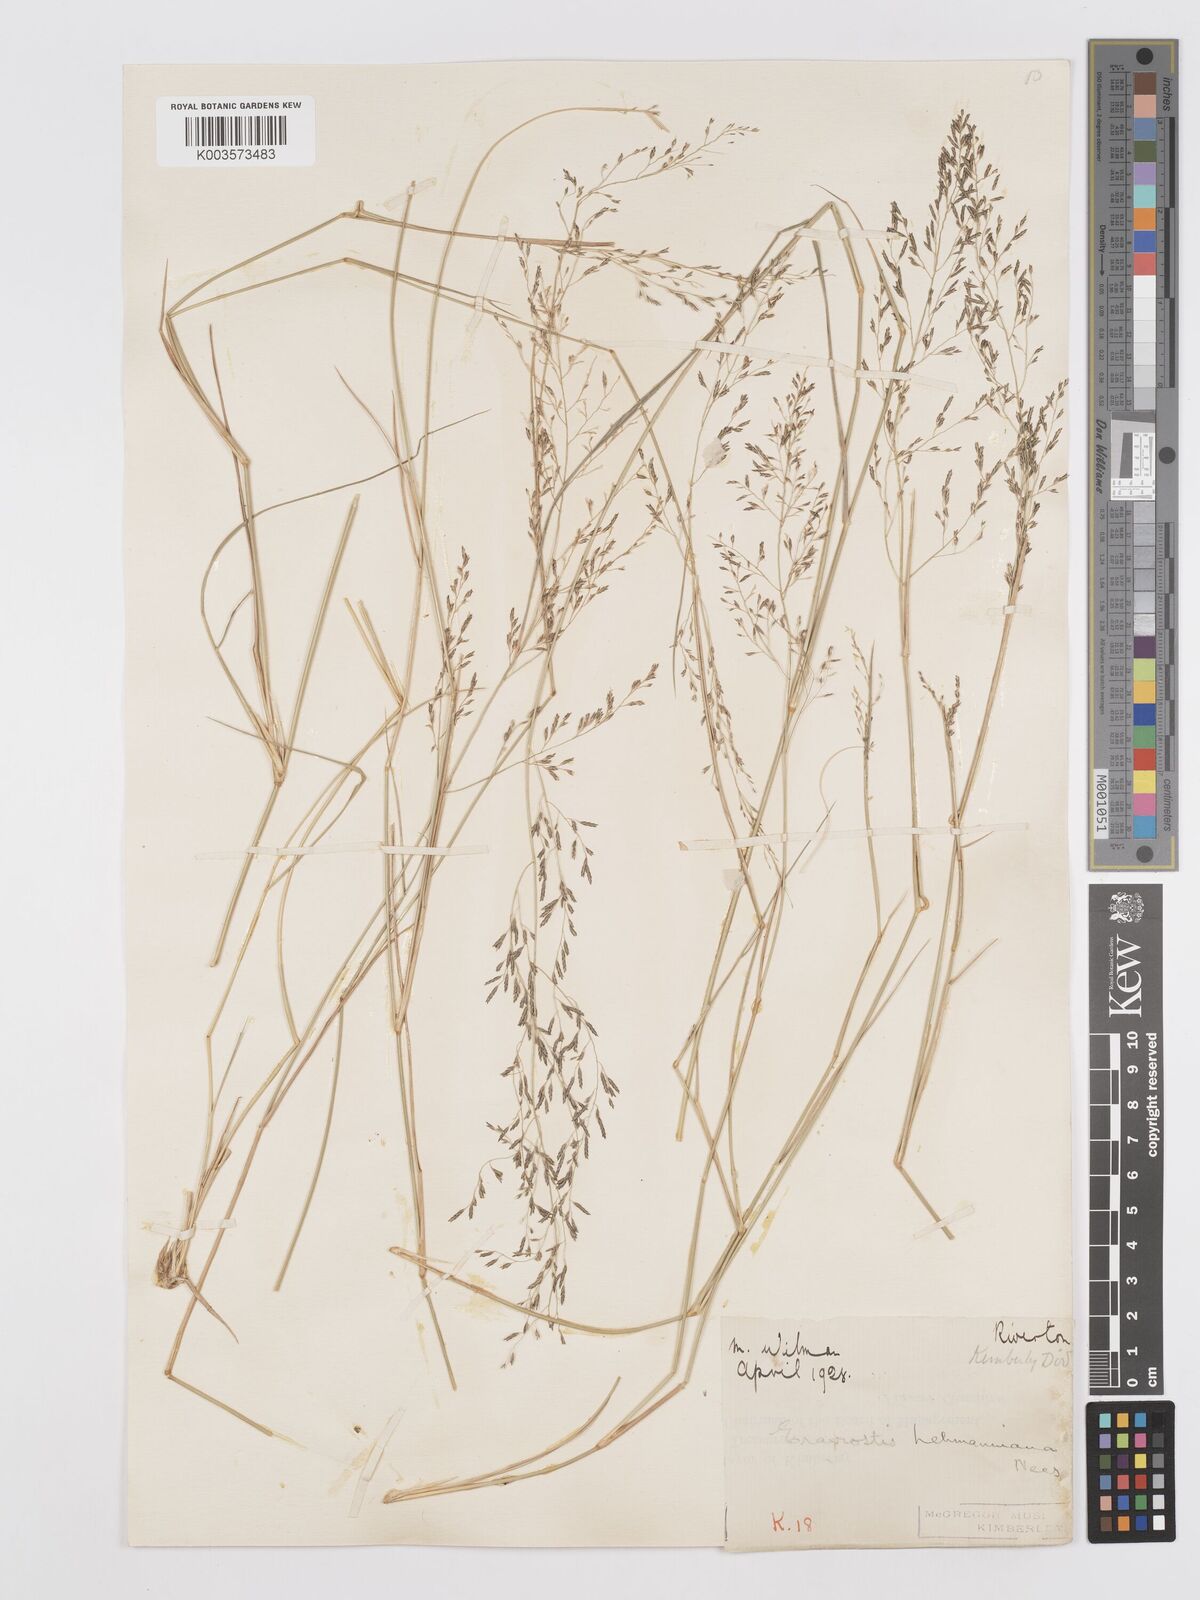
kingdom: Plantae
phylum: Tracheophyta
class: Liliopsida
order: Poales
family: Poaceae
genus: Eragrostis
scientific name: Eragrostis lehmanniana
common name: Lehmann lovegrass
